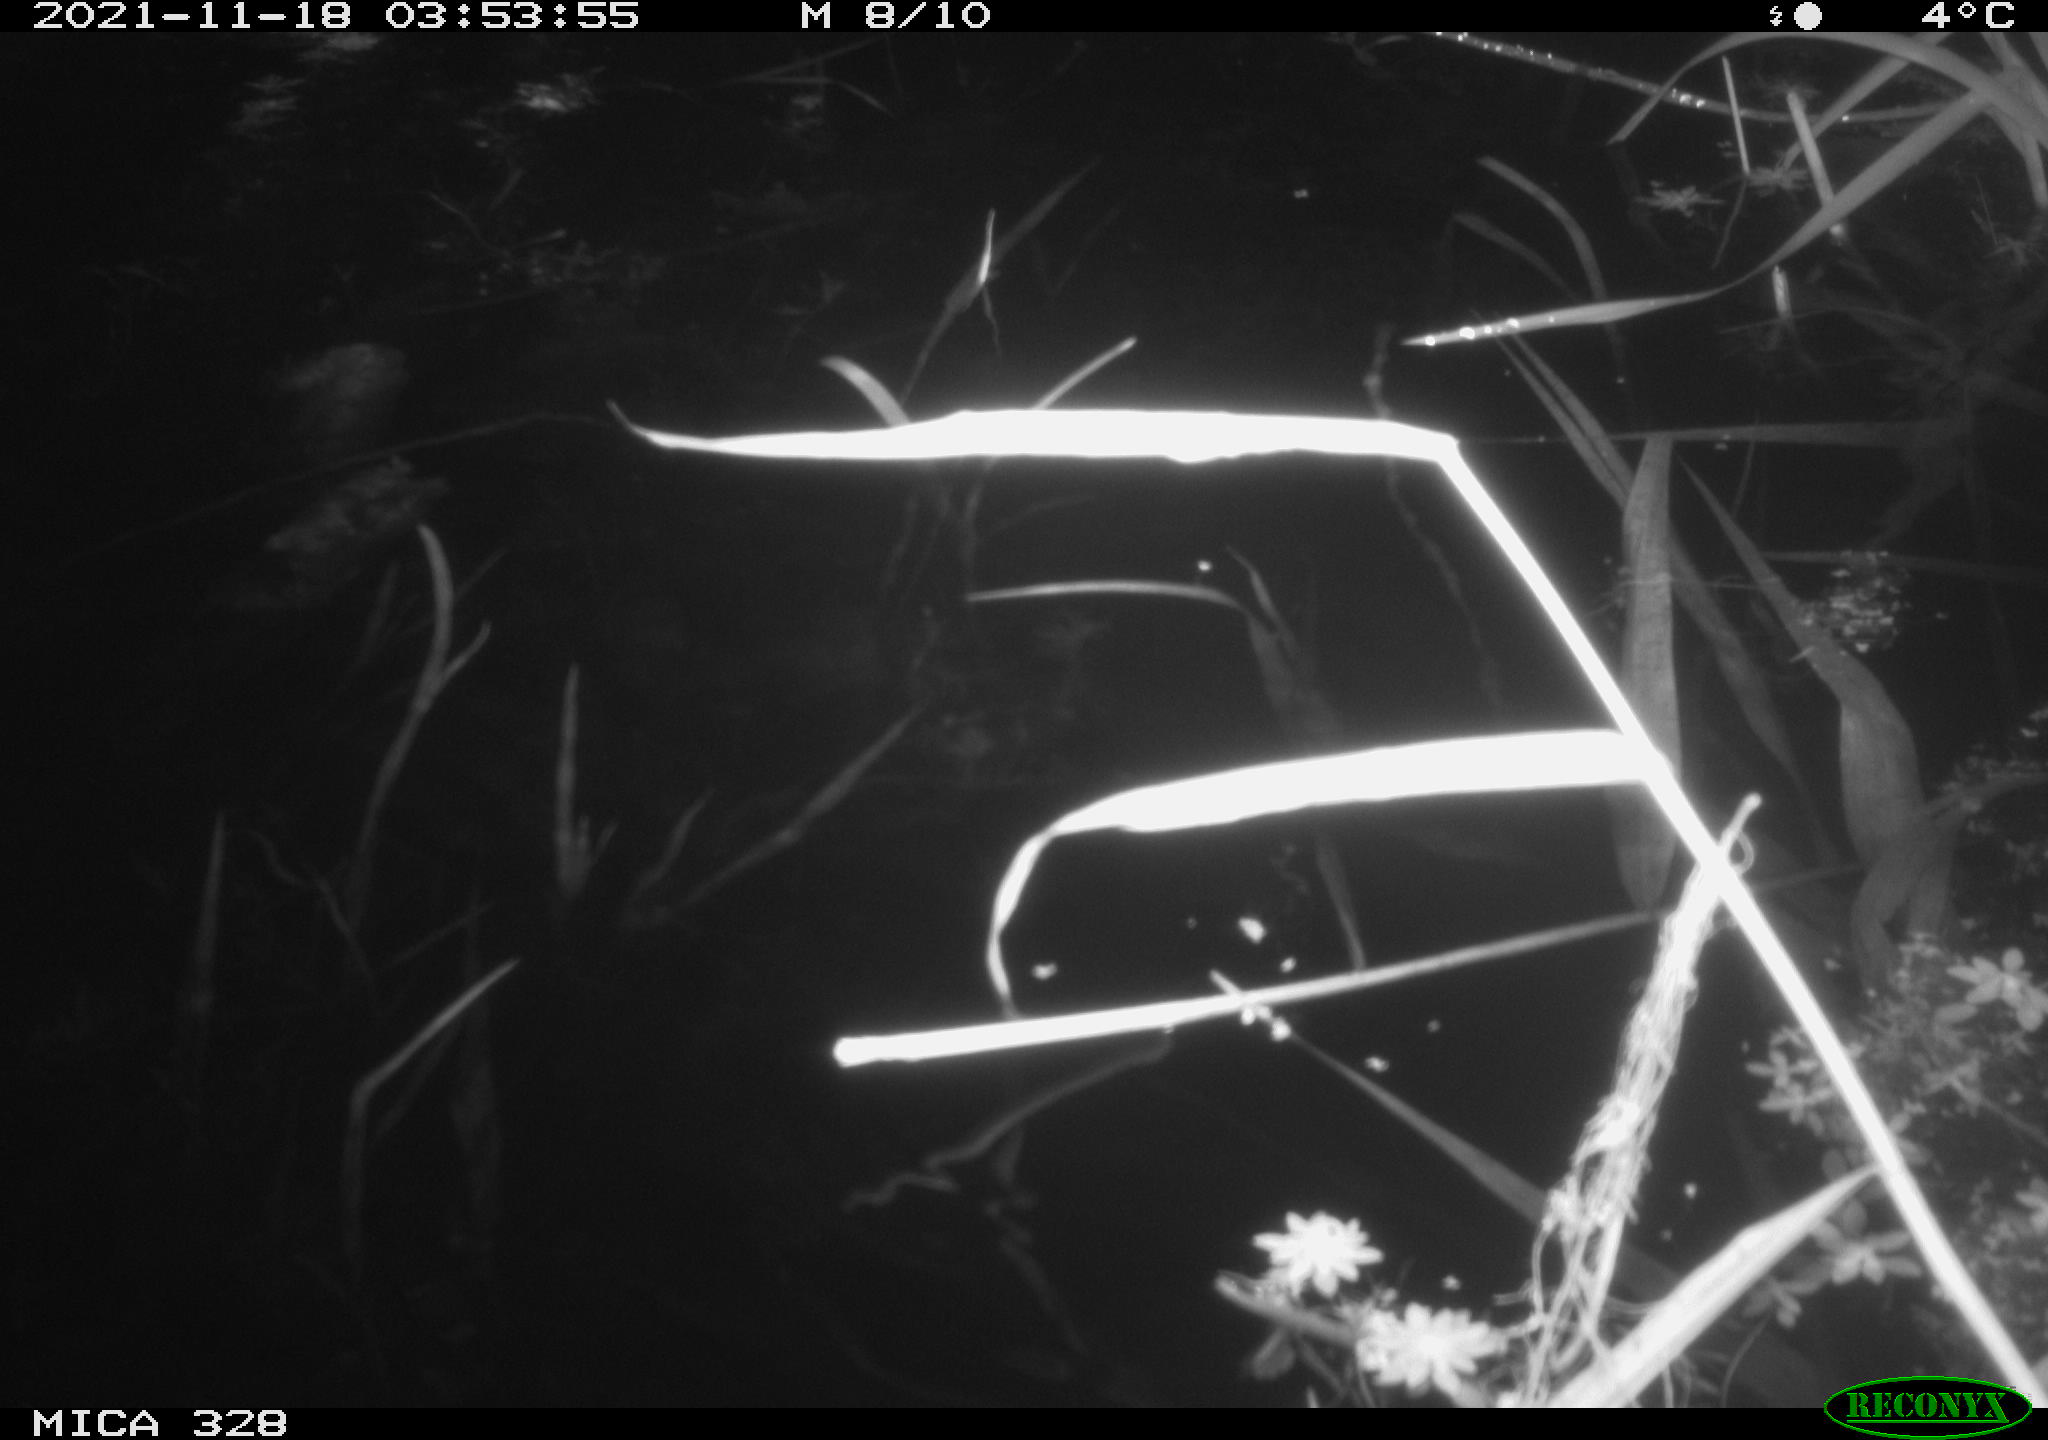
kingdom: Animalia
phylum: Chordata
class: Mammalia
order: Rodentia
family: Cricetidae
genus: Ondatra
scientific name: Ondatra zibethicus
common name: Muskrat
